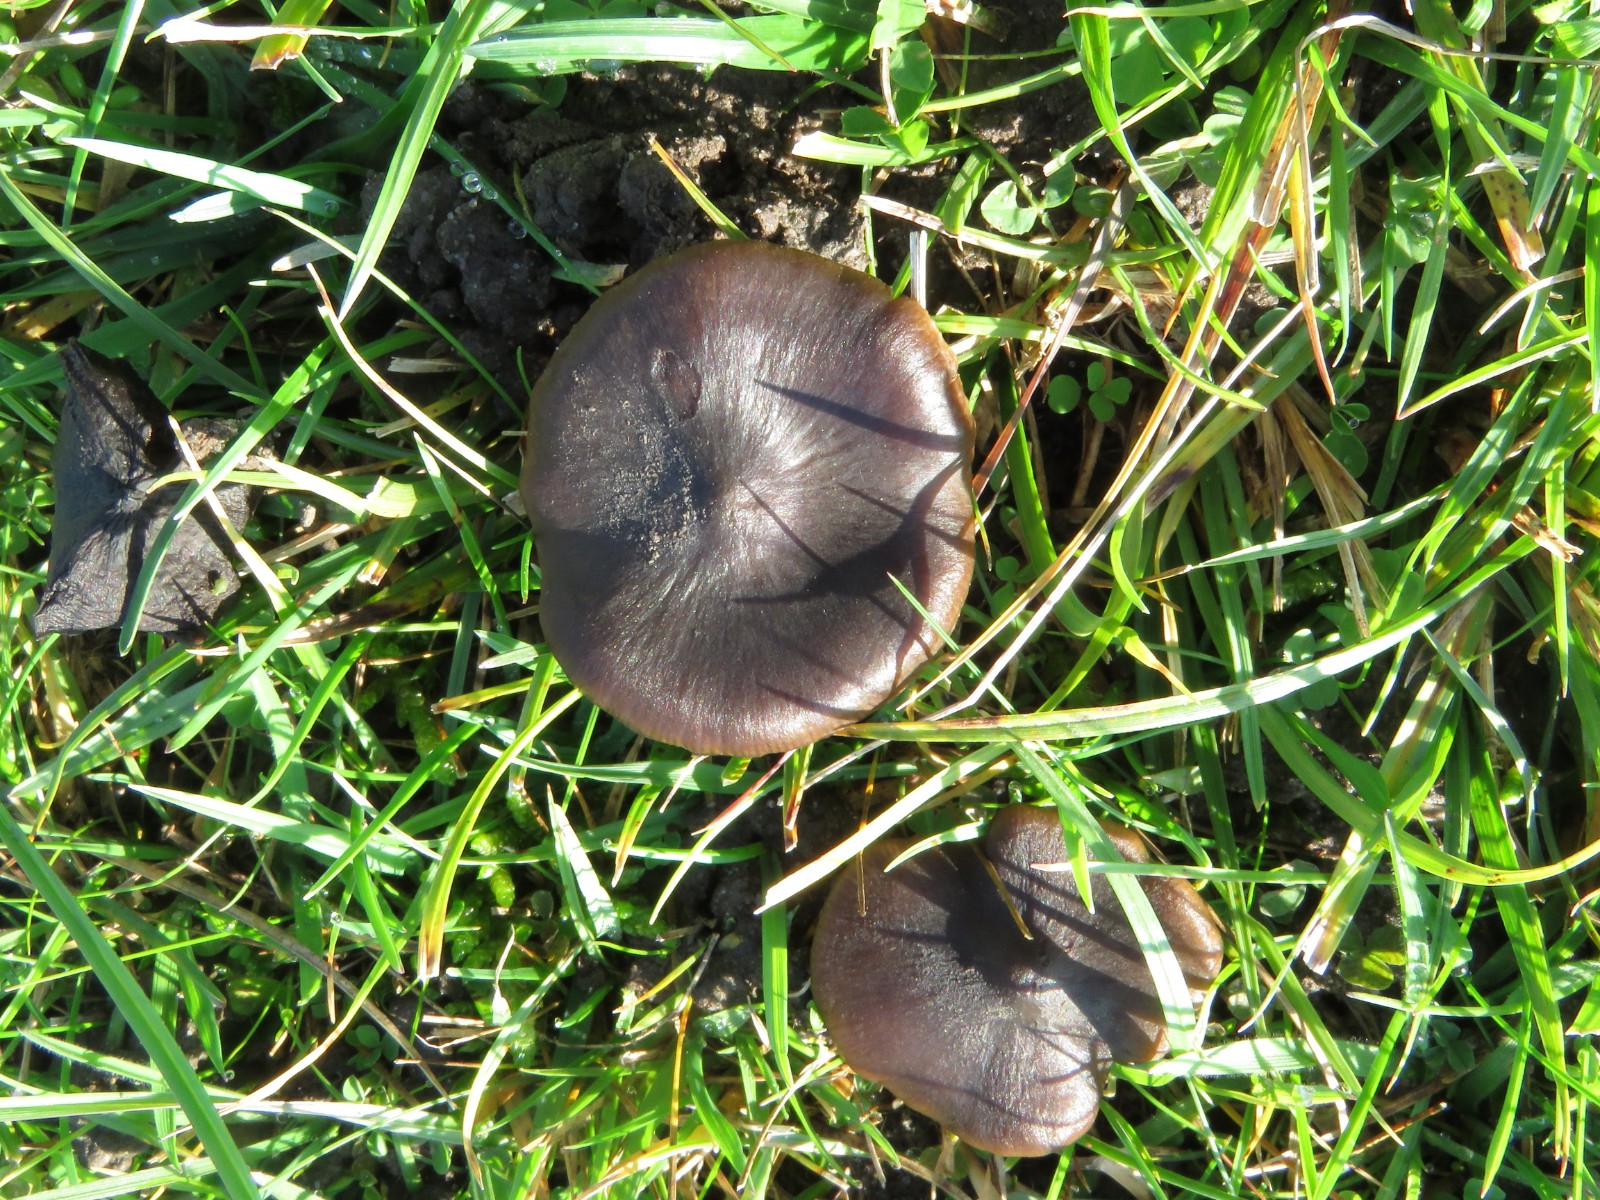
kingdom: Fungi
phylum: Basidiomycota
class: Agaricomycetes
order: Agaricales
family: Entolomataceae
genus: Entoloma
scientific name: Entoloma
